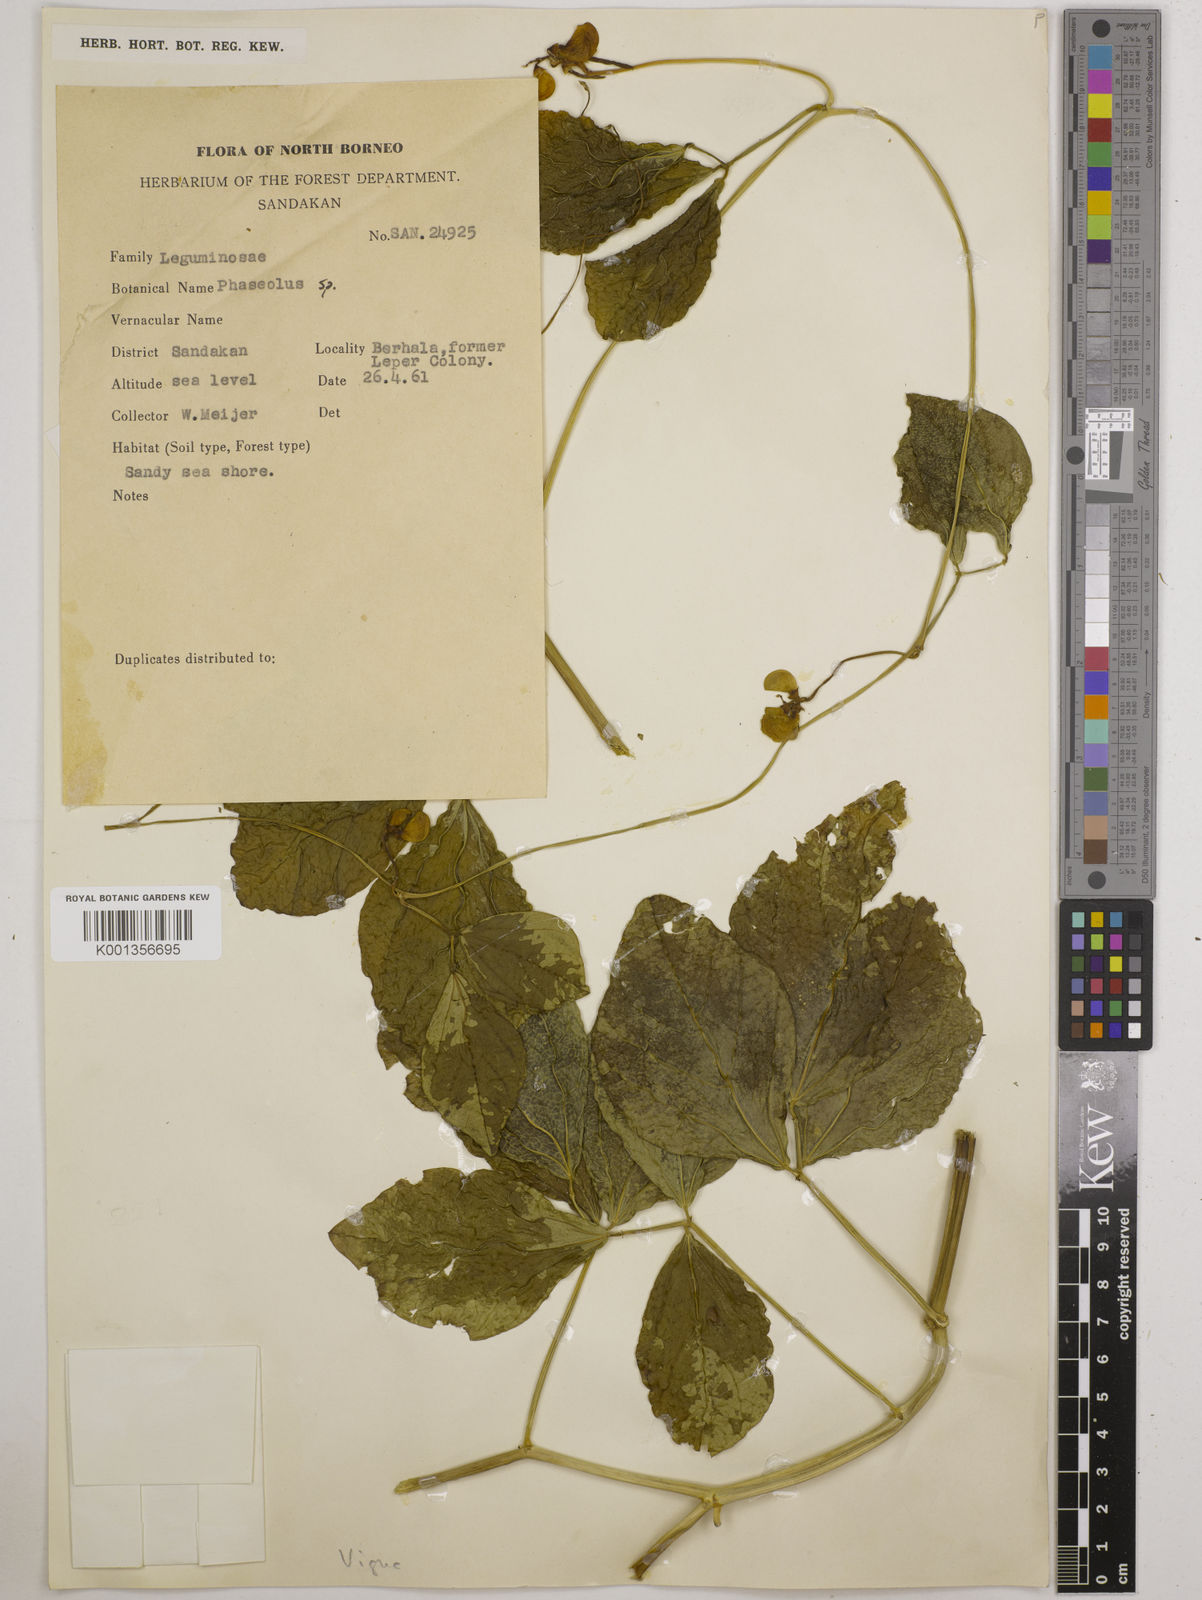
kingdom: Plantae
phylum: Tracheophyta
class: Magnoliopsida
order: Fabales
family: Fabaceae
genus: Vigna
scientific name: Vigna marina
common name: Dune-bean
